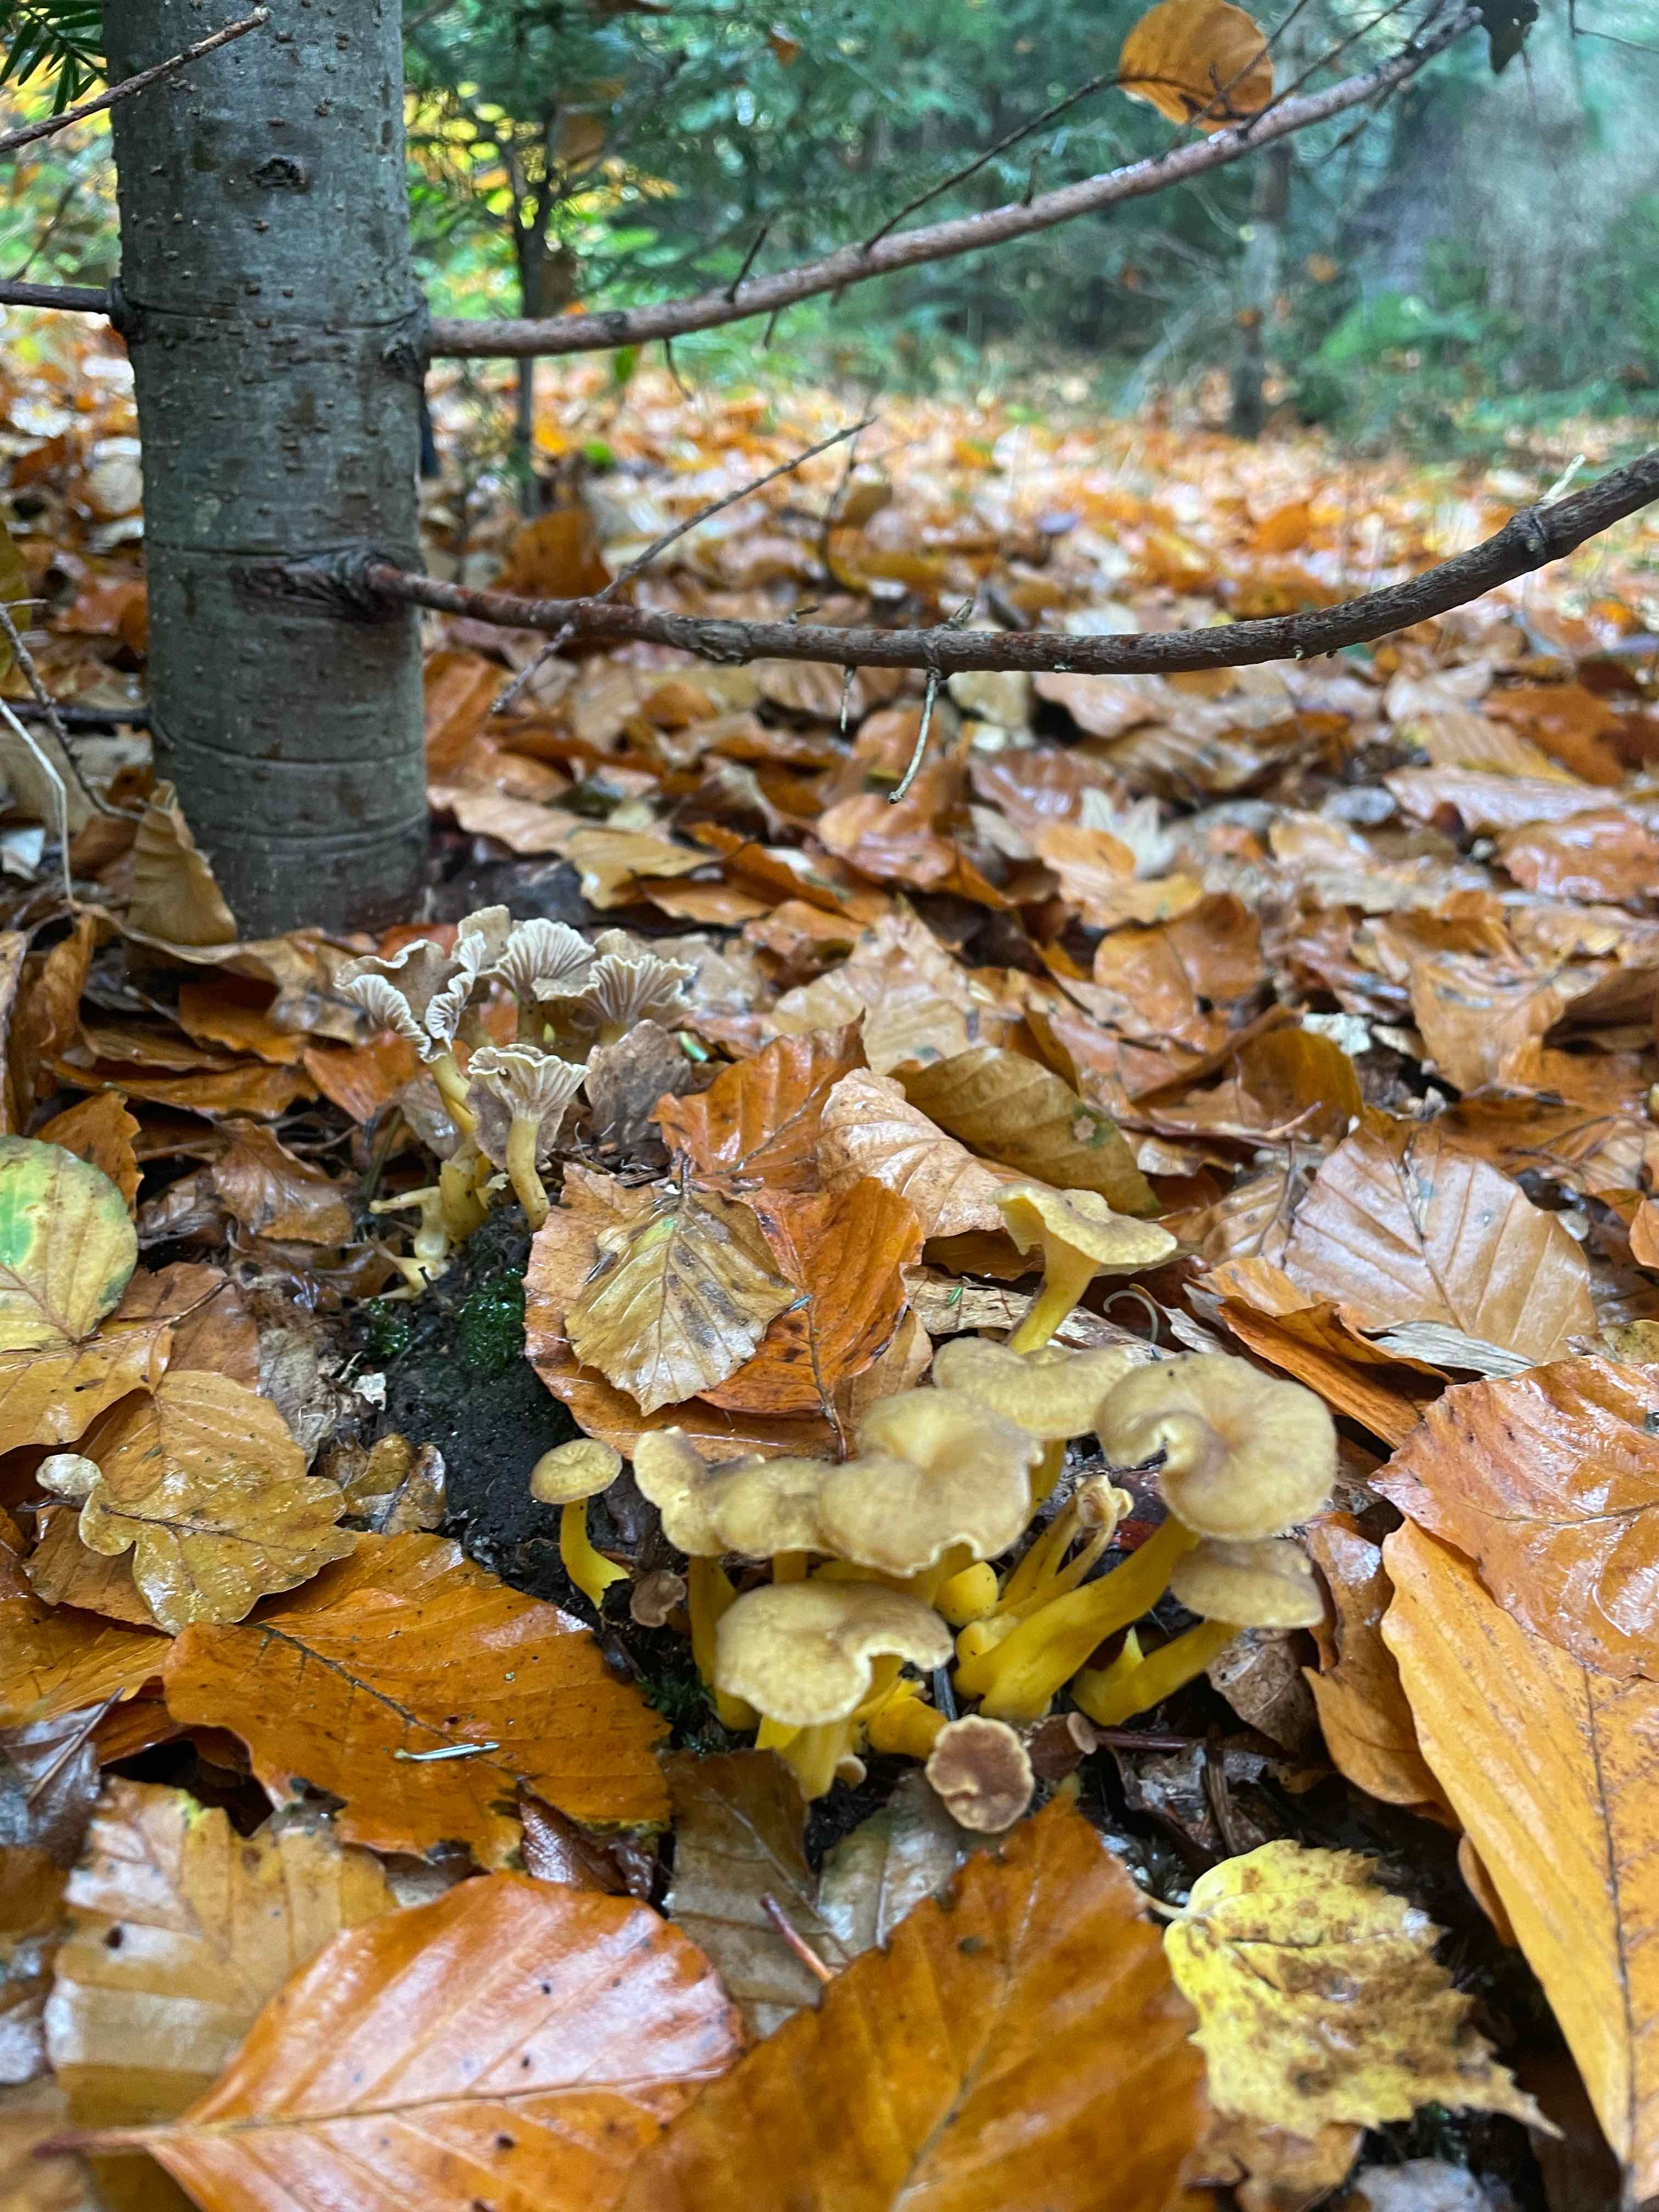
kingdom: Fungi
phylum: Basidiomycota
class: Agaricomycetes
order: Cantharellales
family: Hydnaceae
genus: Craterellus
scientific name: Craterellus tubaeformis
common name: tragt-kantarel
